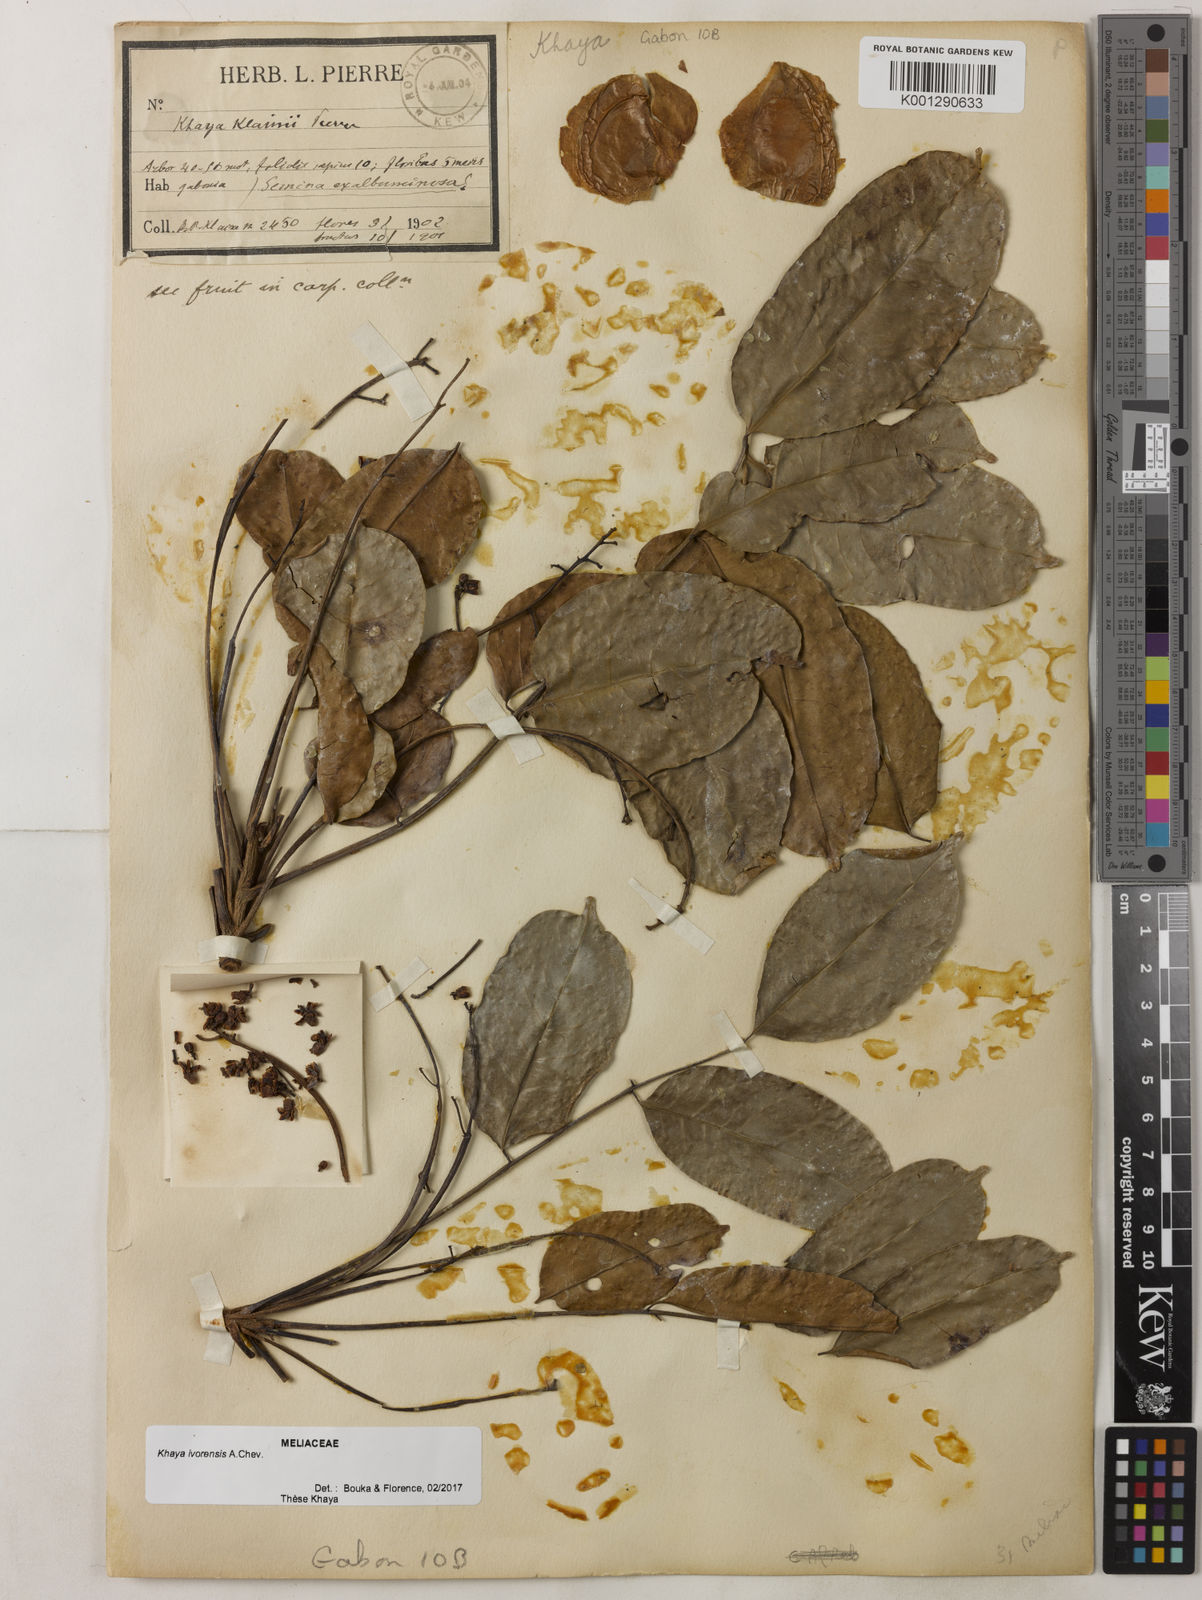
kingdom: Plantae
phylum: Tracheophyta
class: Magnoliopsida
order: Sapindales
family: Meliaceae
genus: Khaya
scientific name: Khaya ivorensis
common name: African mahogany
